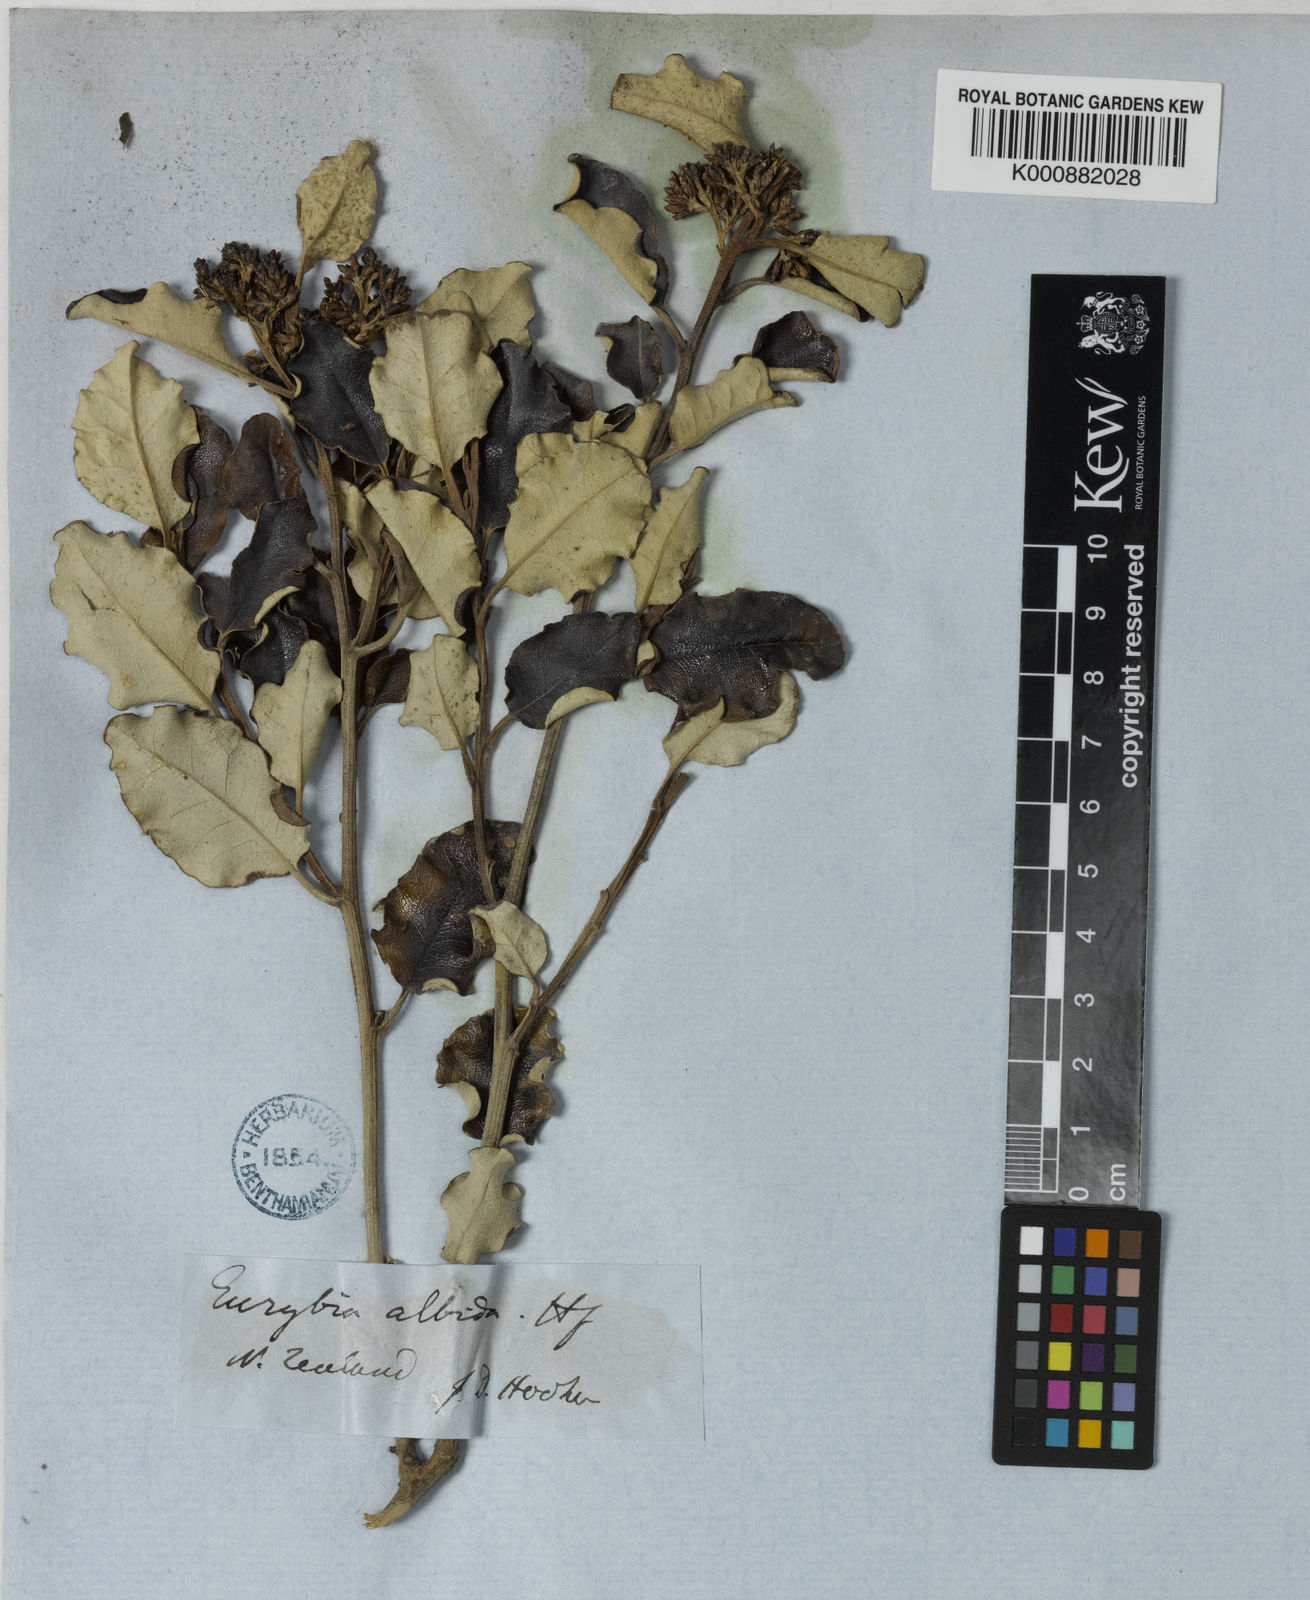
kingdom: Plantae
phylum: Tracheophyta
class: Magnoliopsida
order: Asterales
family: Asteraceae
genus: Olearia
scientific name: Olearia albida
